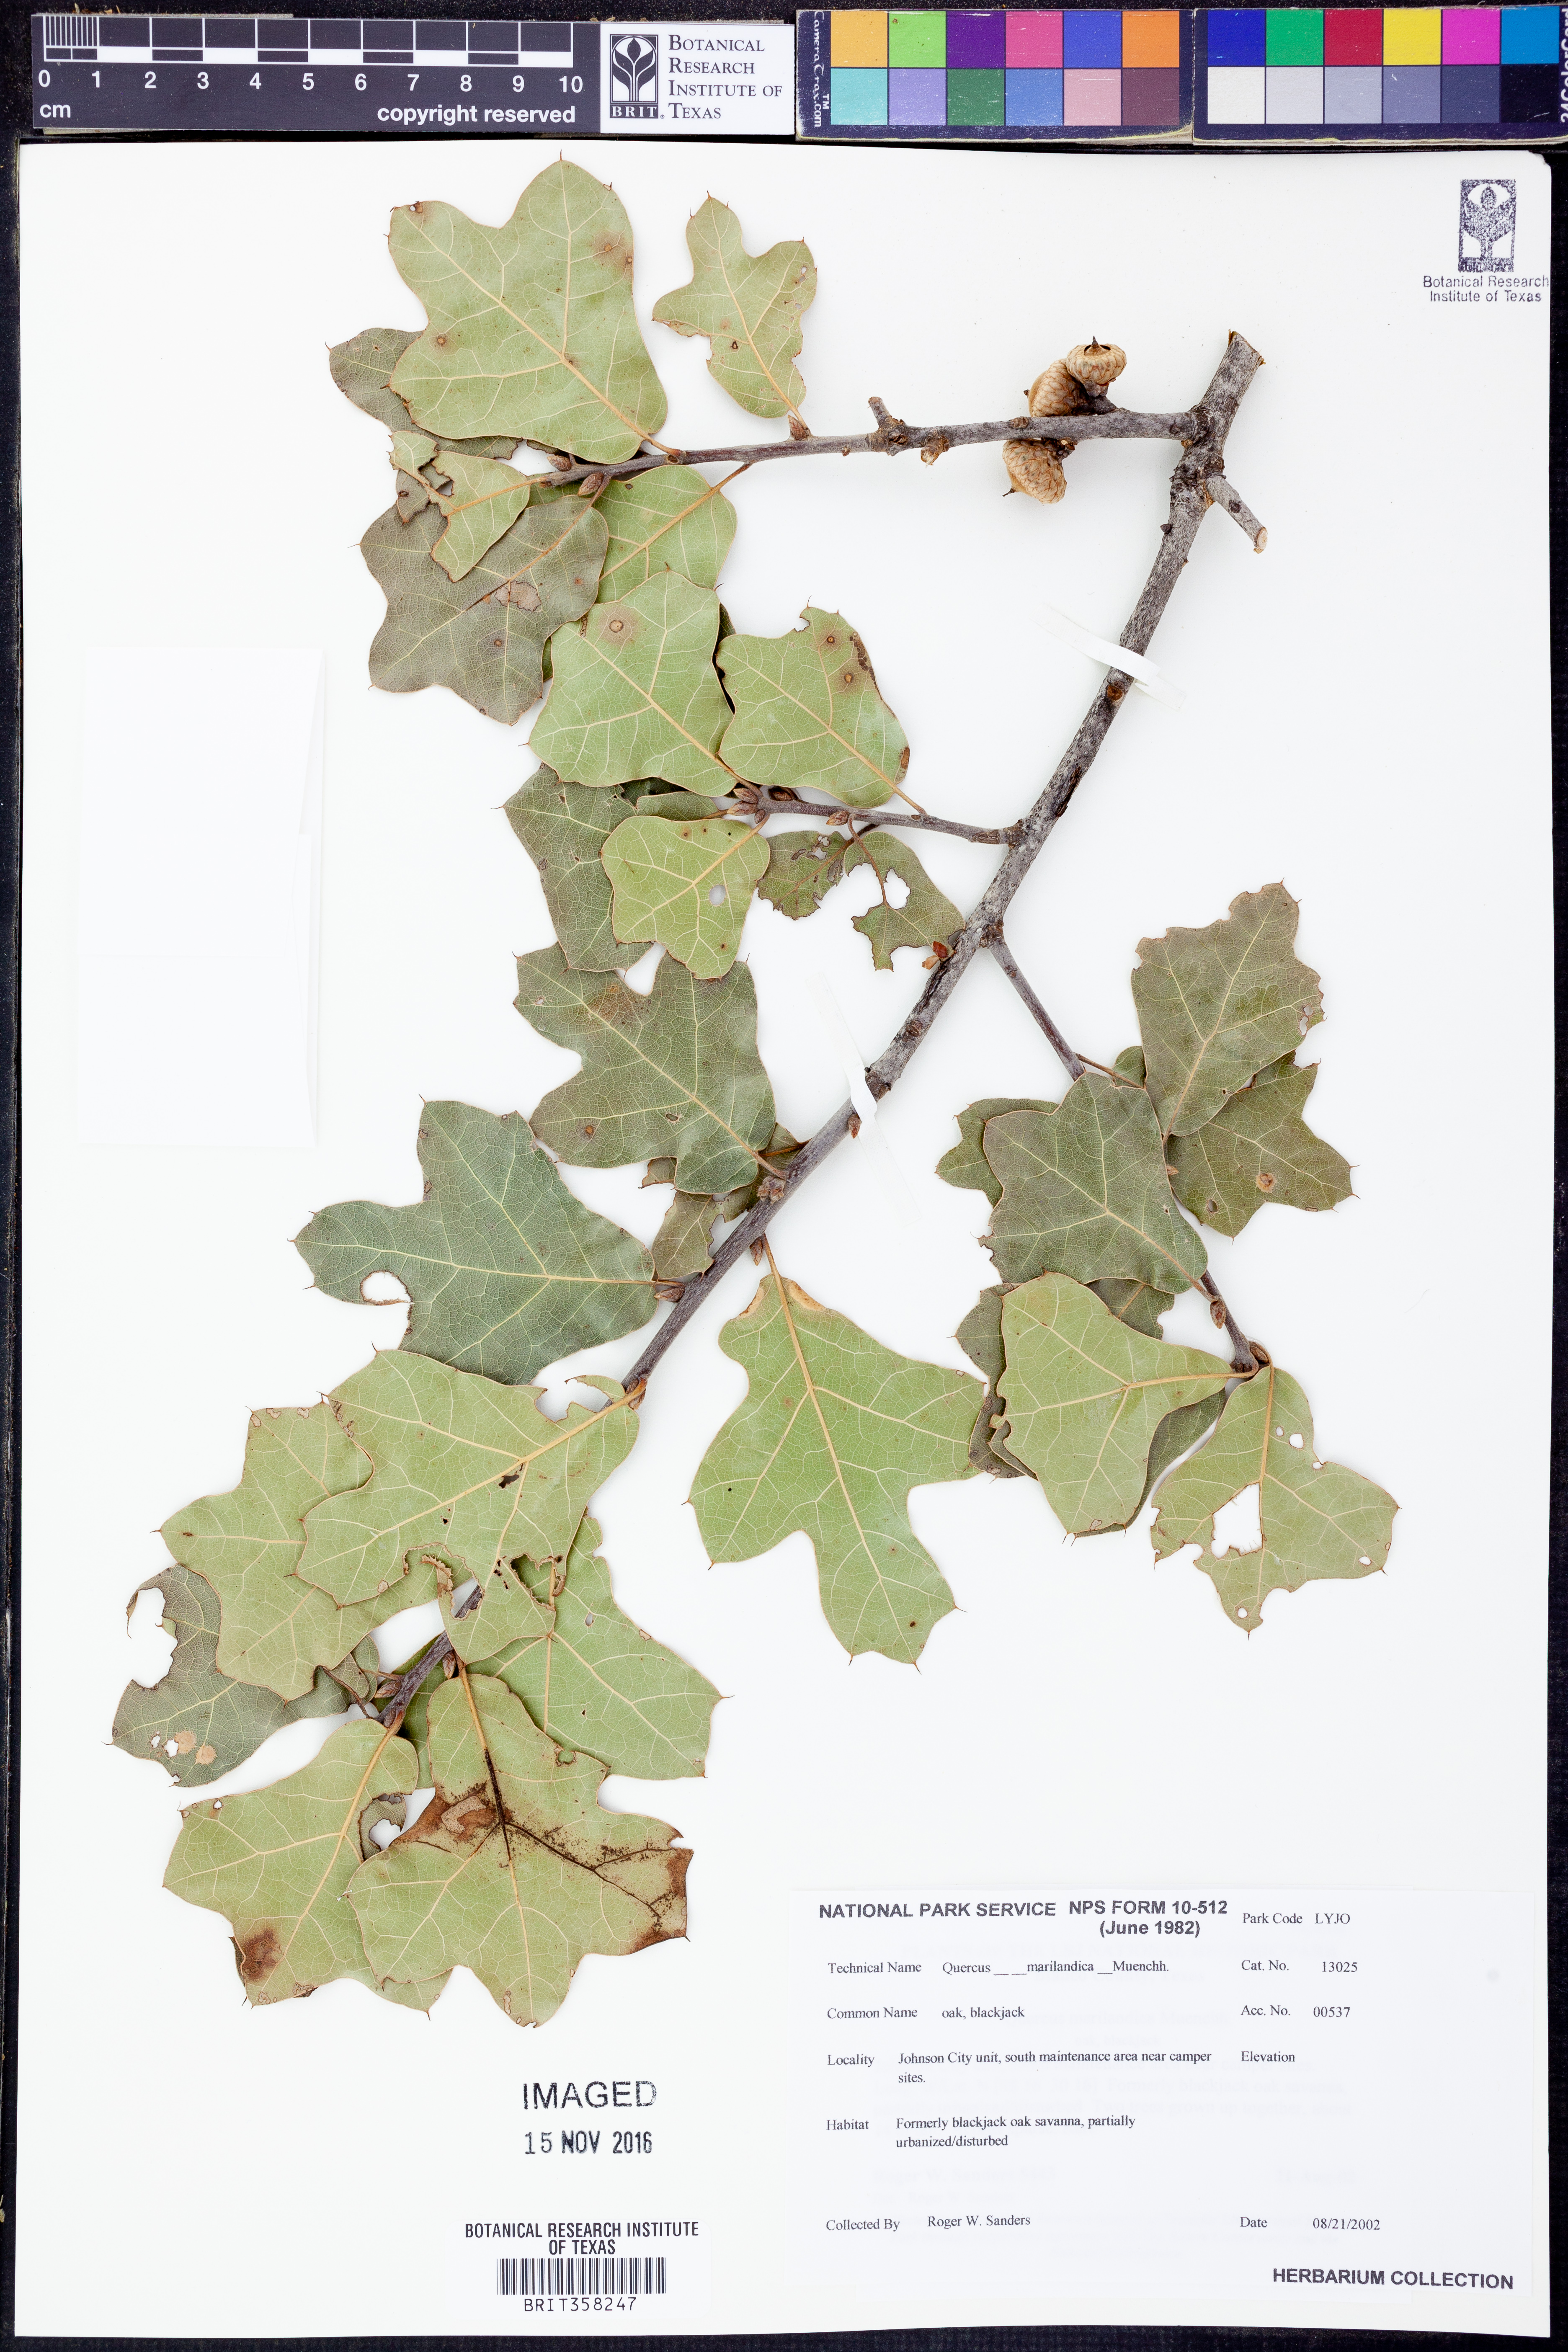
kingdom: Plantae
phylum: Tracheophyta
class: Magnoliopsida
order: Fagales
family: Fagaceae
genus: Quercus
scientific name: Quercus marilandica
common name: Blackjack oak
